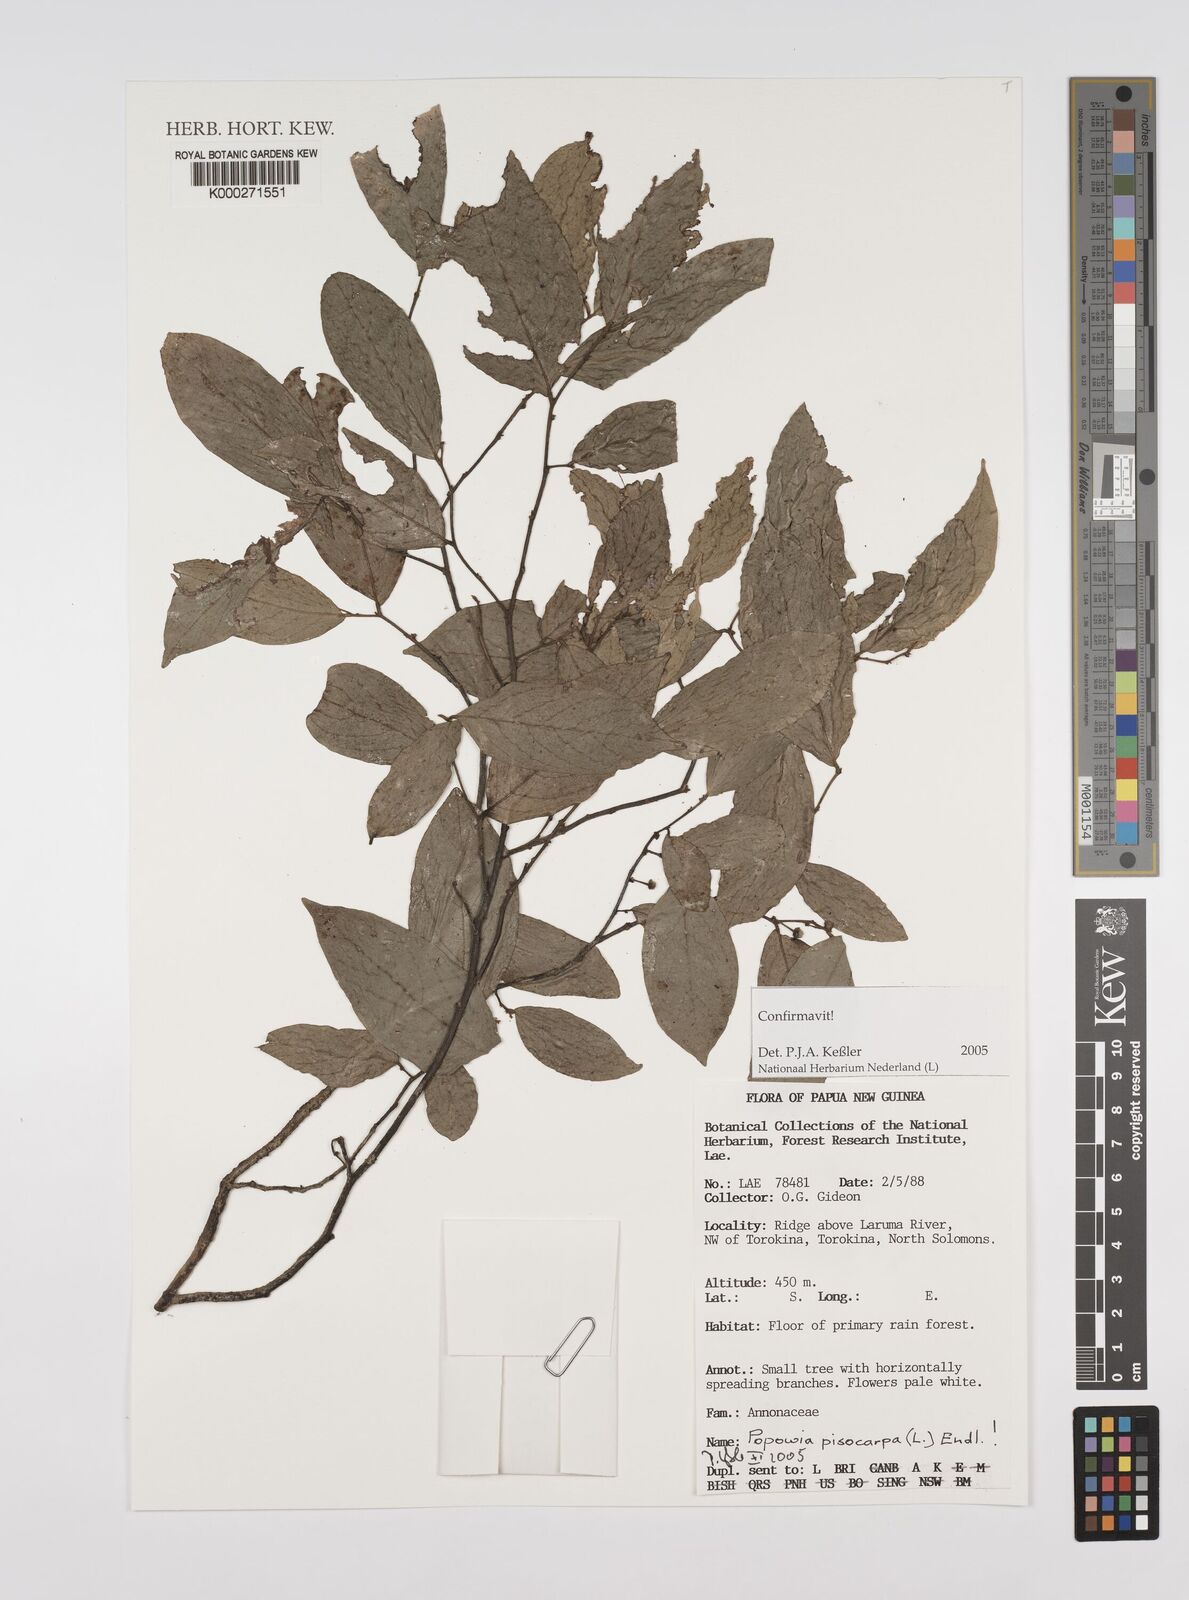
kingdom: Plantae
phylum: Tracheophyta
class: Magnoliopsida
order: Magnoliales
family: Annonaceae
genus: Popowia
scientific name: Popowia
